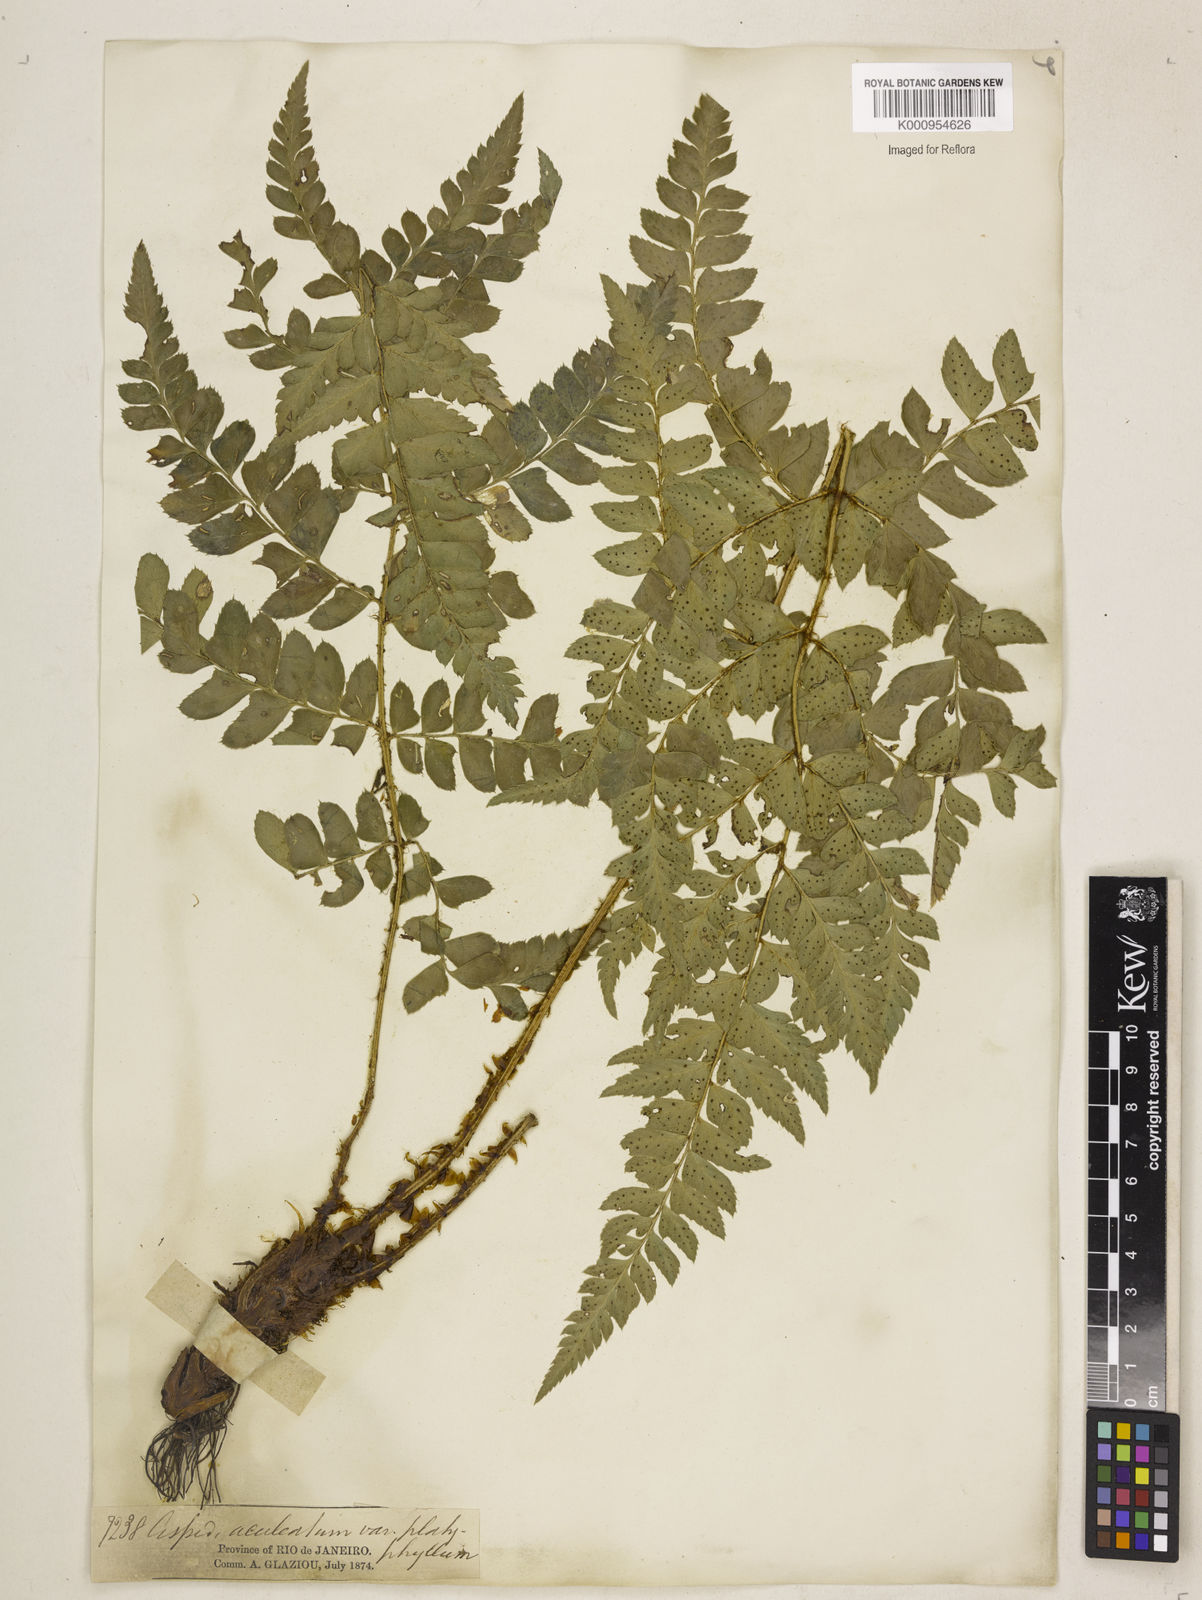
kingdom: Plantae
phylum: Tracheophyta
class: Polypodiopsida
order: Polypodiales
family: Dryopteridaceae
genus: Polystichum
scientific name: Polystichum platyphyllum
